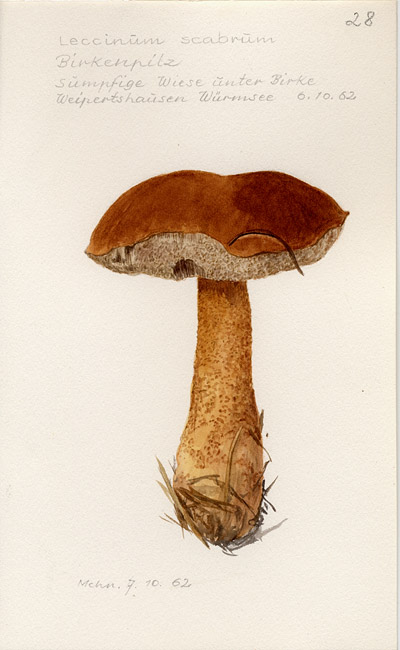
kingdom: Fungi
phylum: Basidiomycota
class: Agaricomycetes
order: Boletales
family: Boletaceae
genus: Leccinum
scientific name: Leccinum scabrum
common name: Blushing bolete
